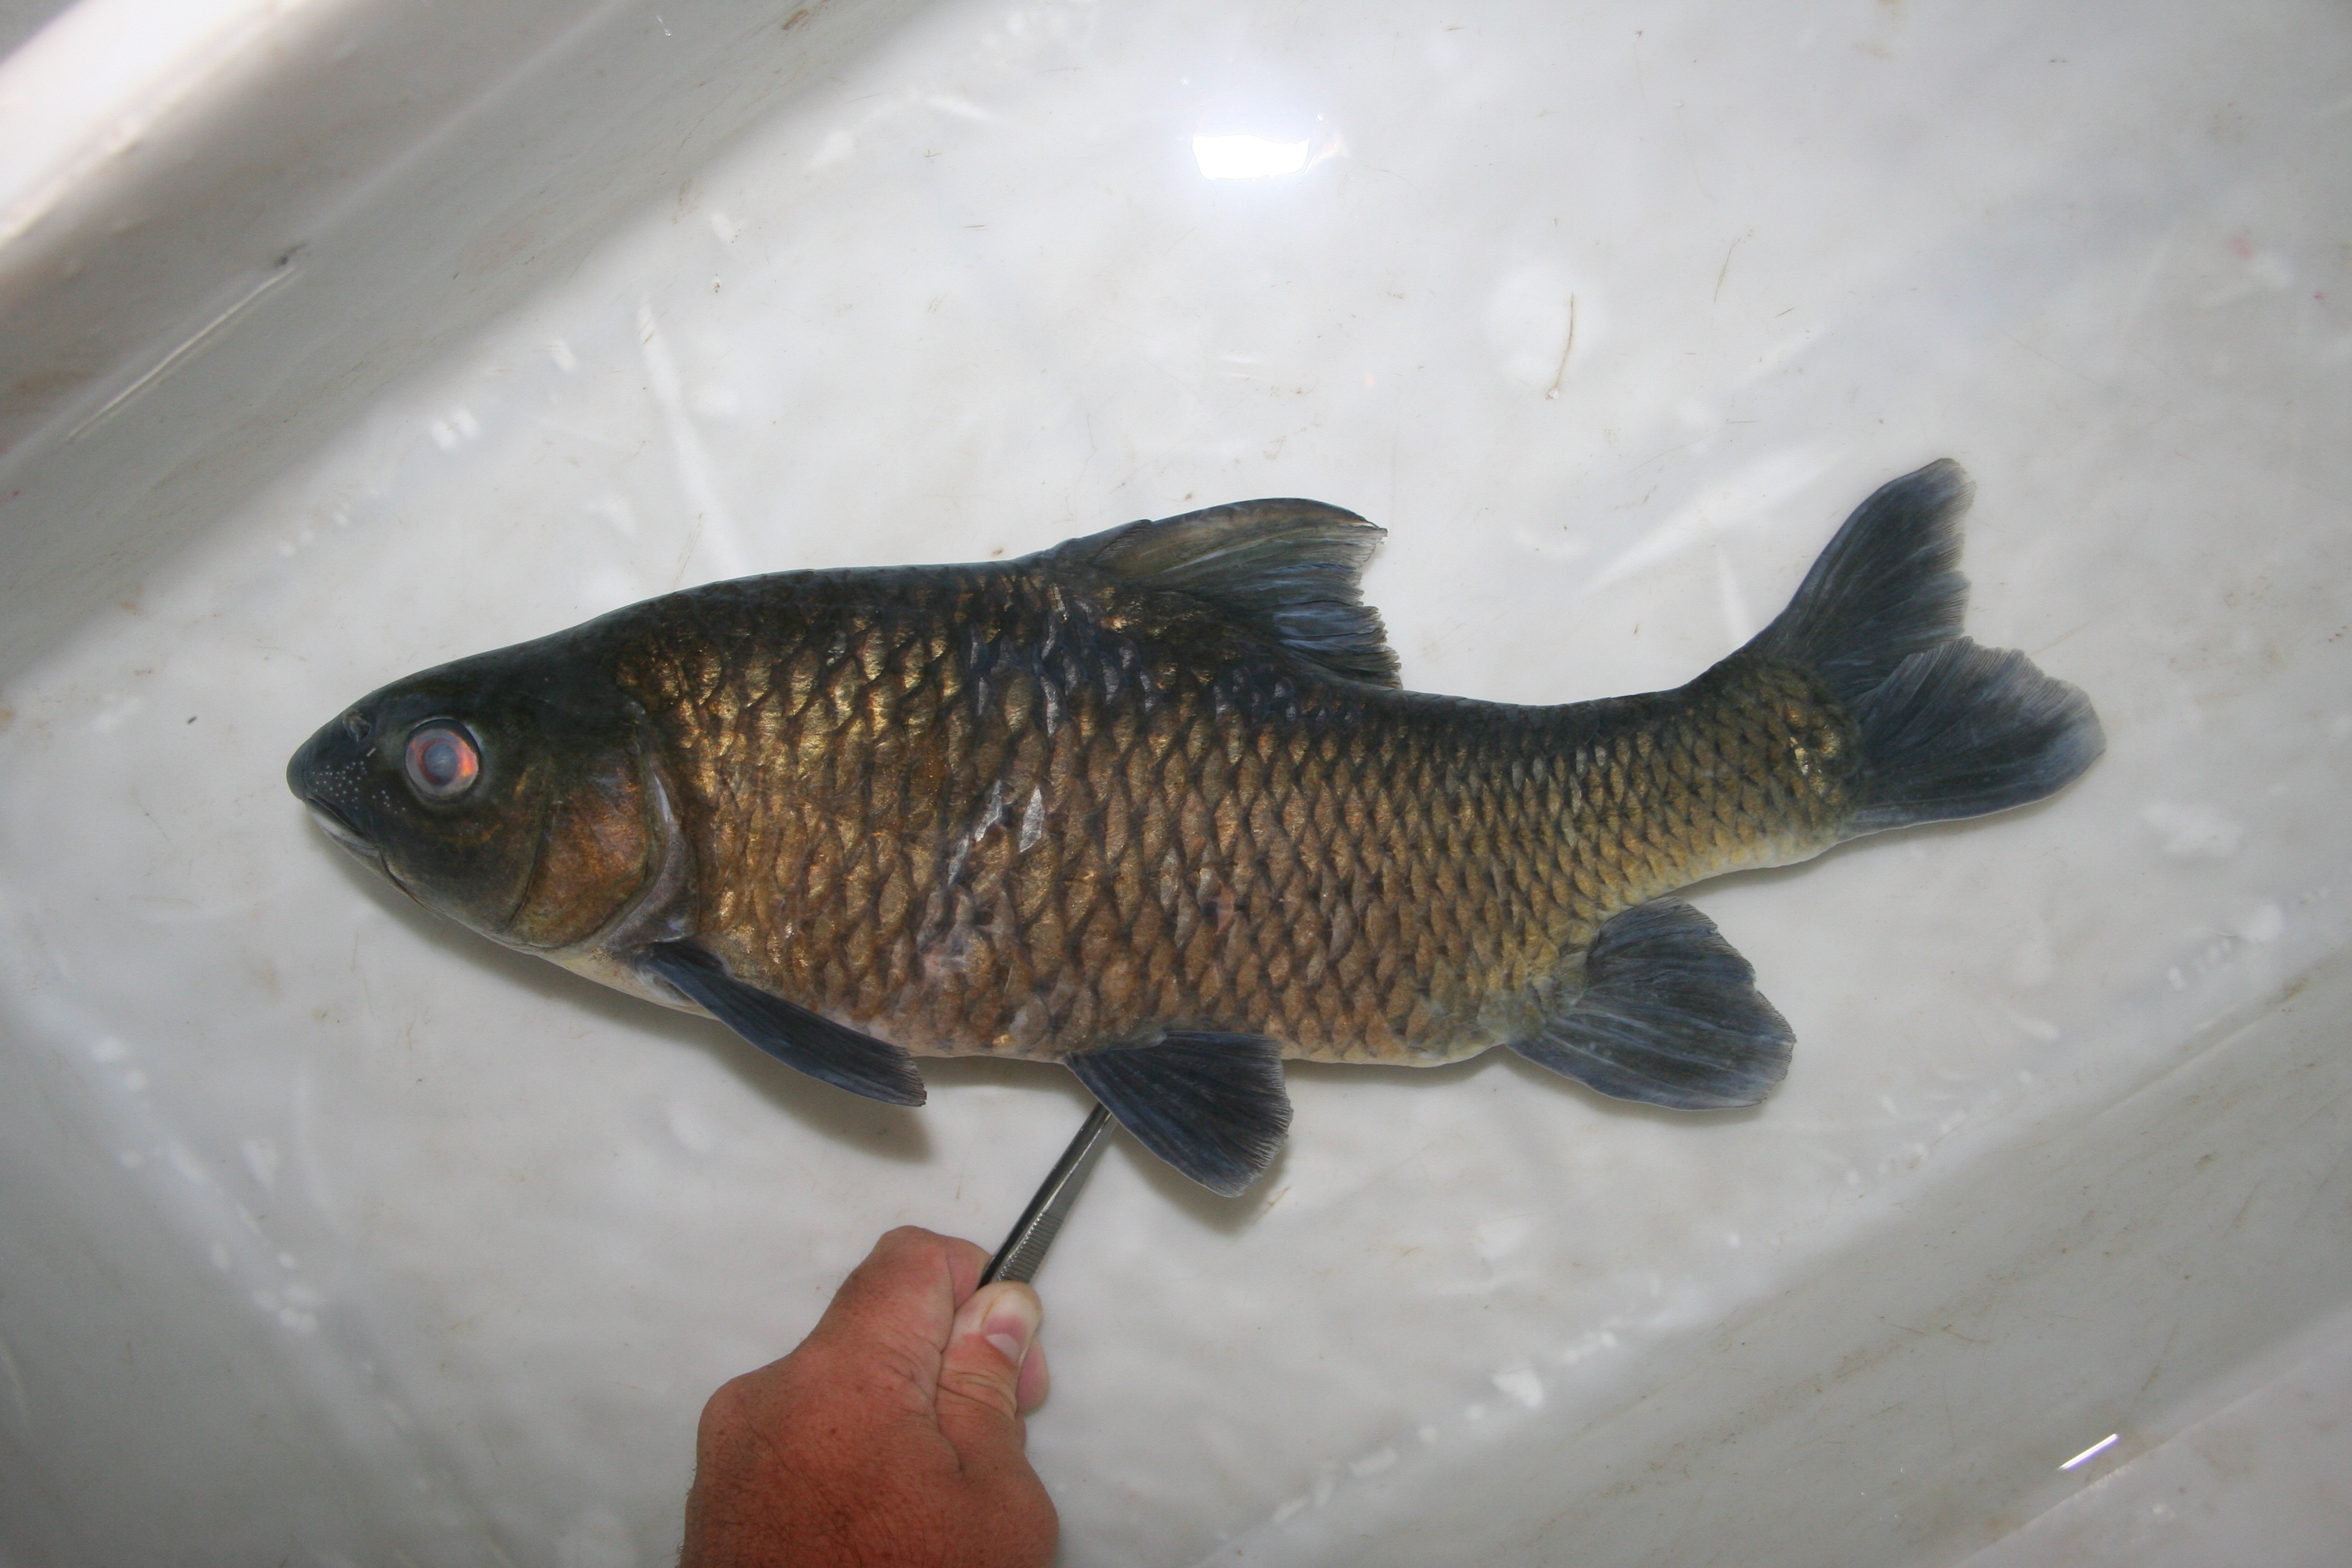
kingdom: Animalia
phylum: Chordata
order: Cypriniformes
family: Cyprinidae
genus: Labeobarbus
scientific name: Labeobarbus
